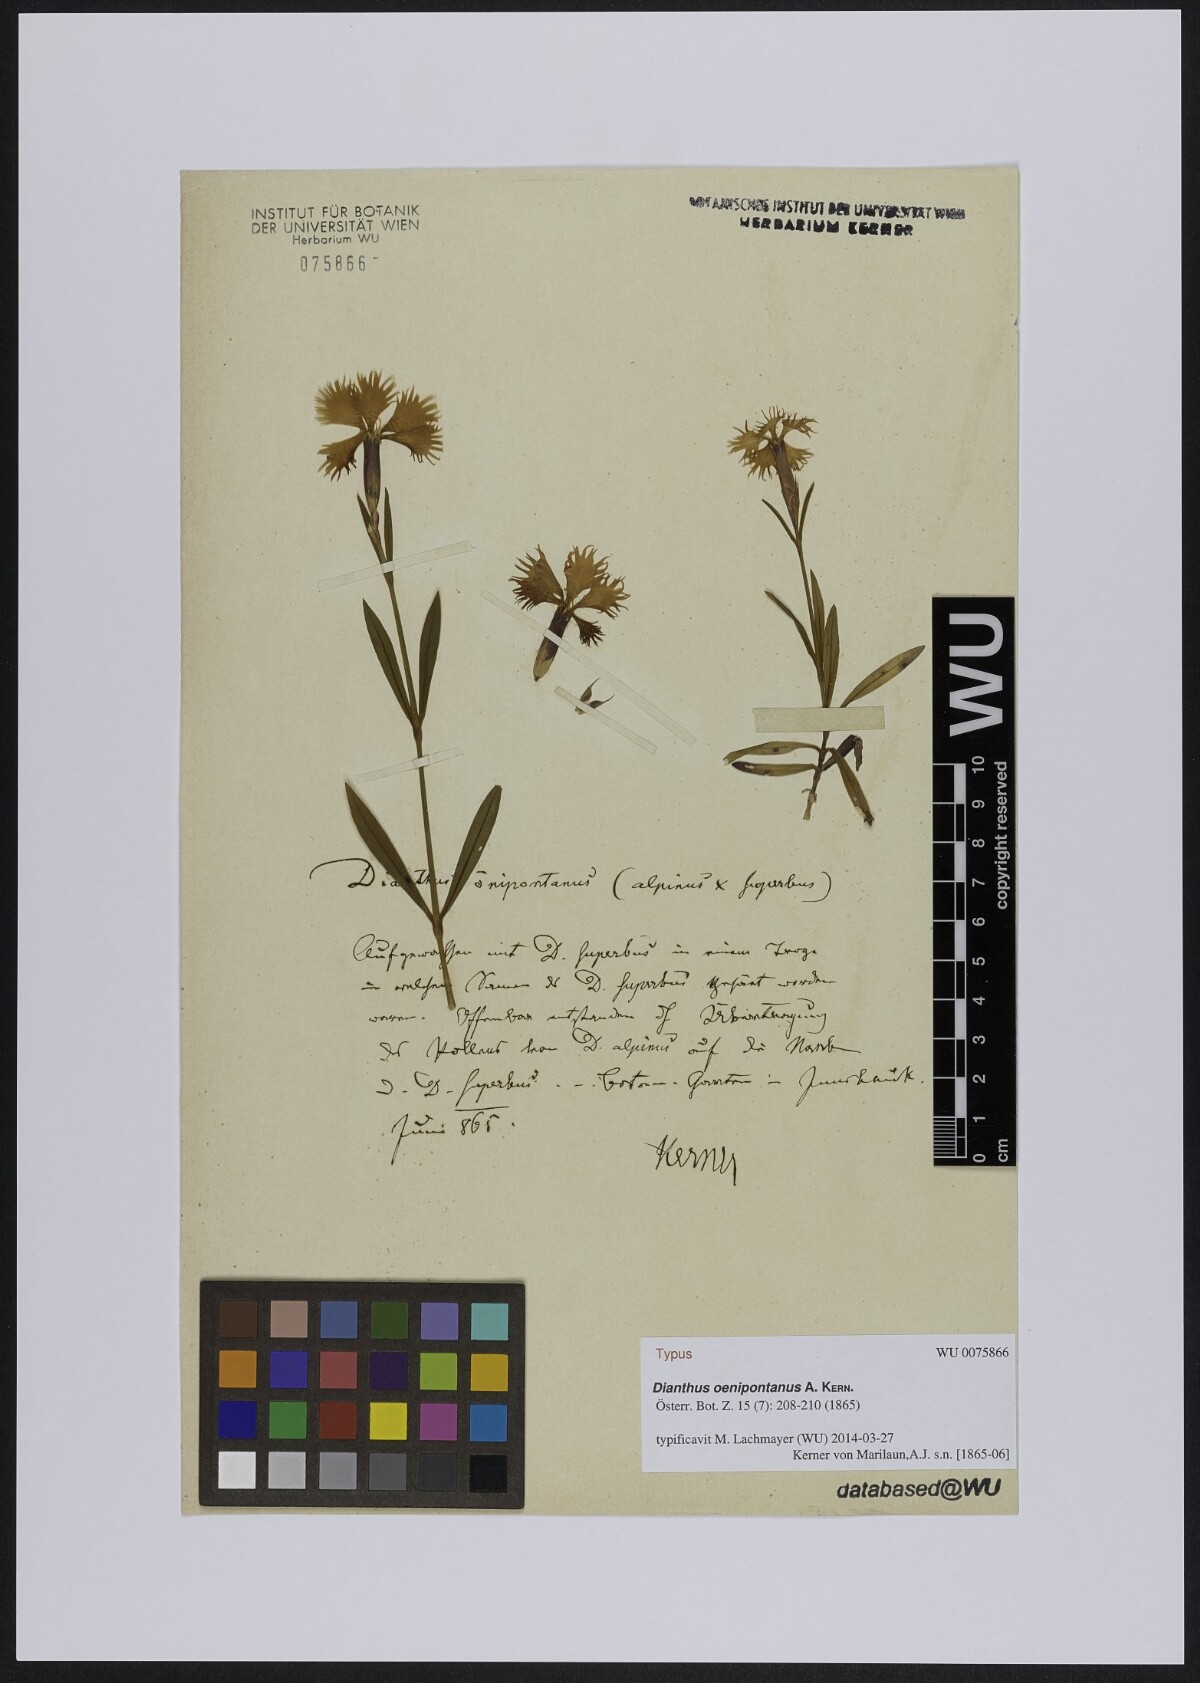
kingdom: Plantae
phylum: Tracheophyta
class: Magnoliopsida
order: Caryophyllales
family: Caryophyllaceae
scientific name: Caryophyllaceae
